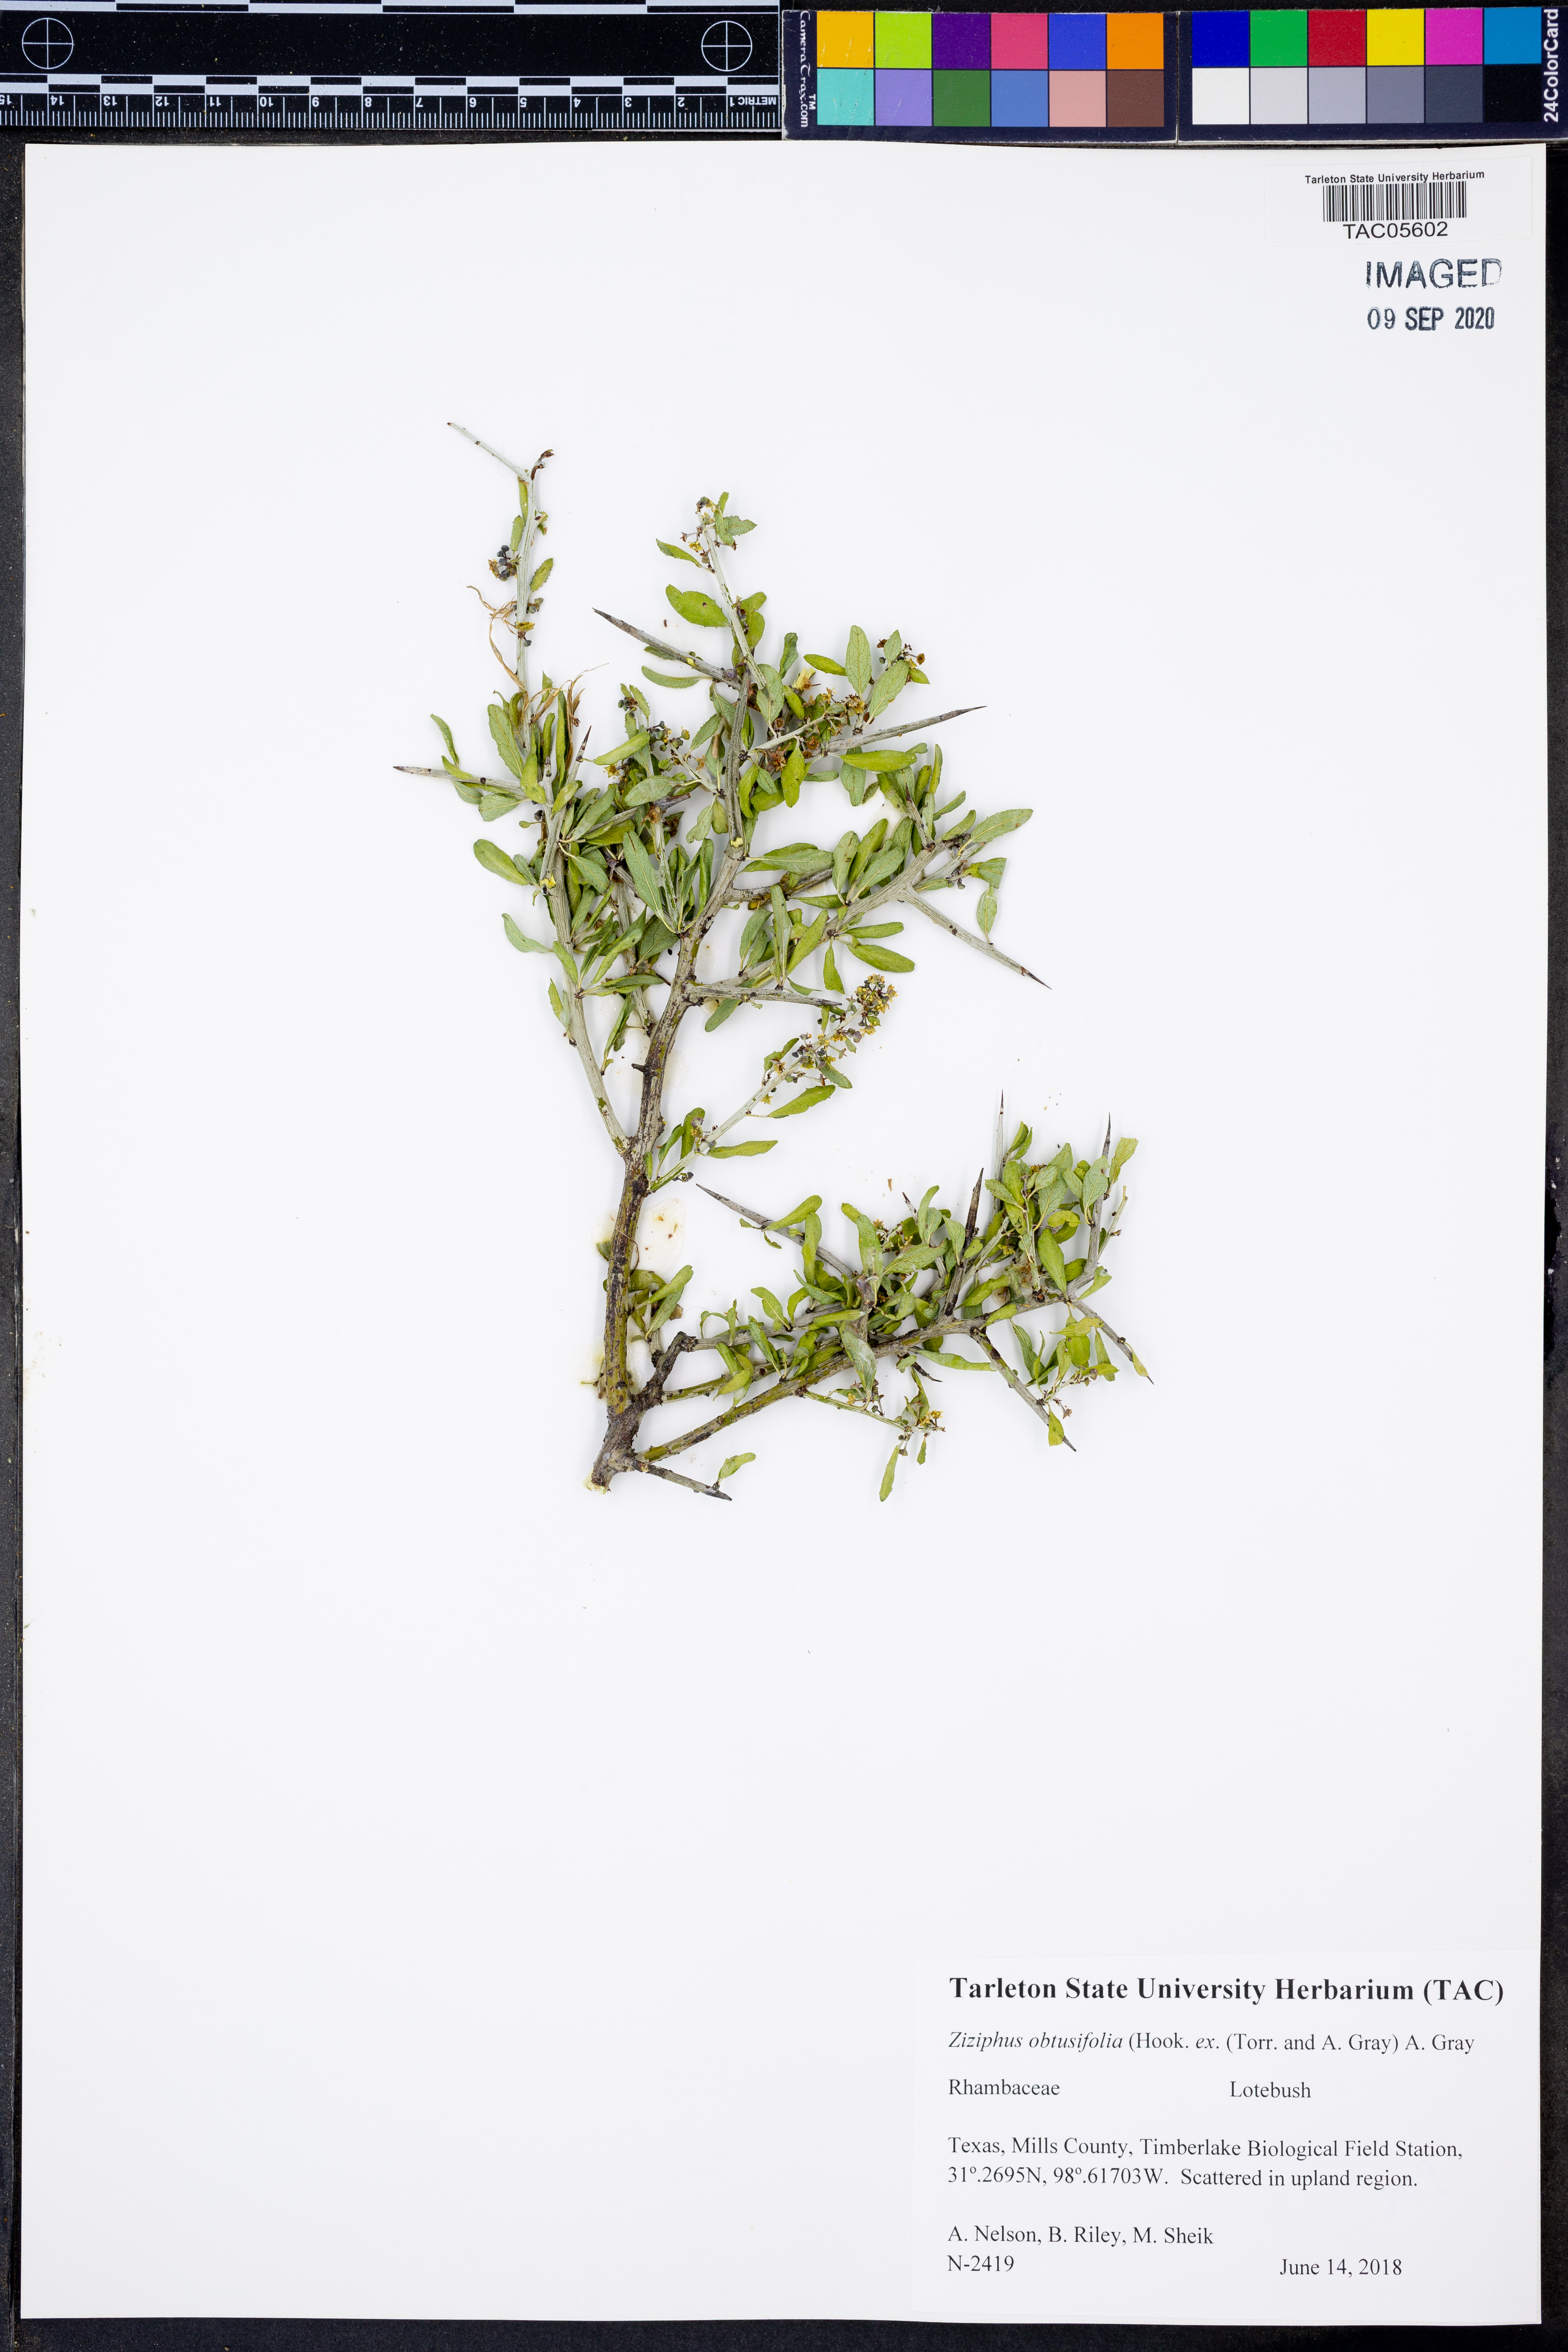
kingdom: Plantae
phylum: Tracheophyta
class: Magnoliopsida
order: Rosales
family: Rhamnaceae
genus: Sarcomphalus
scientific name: Sarcomphalus obtusifolius
